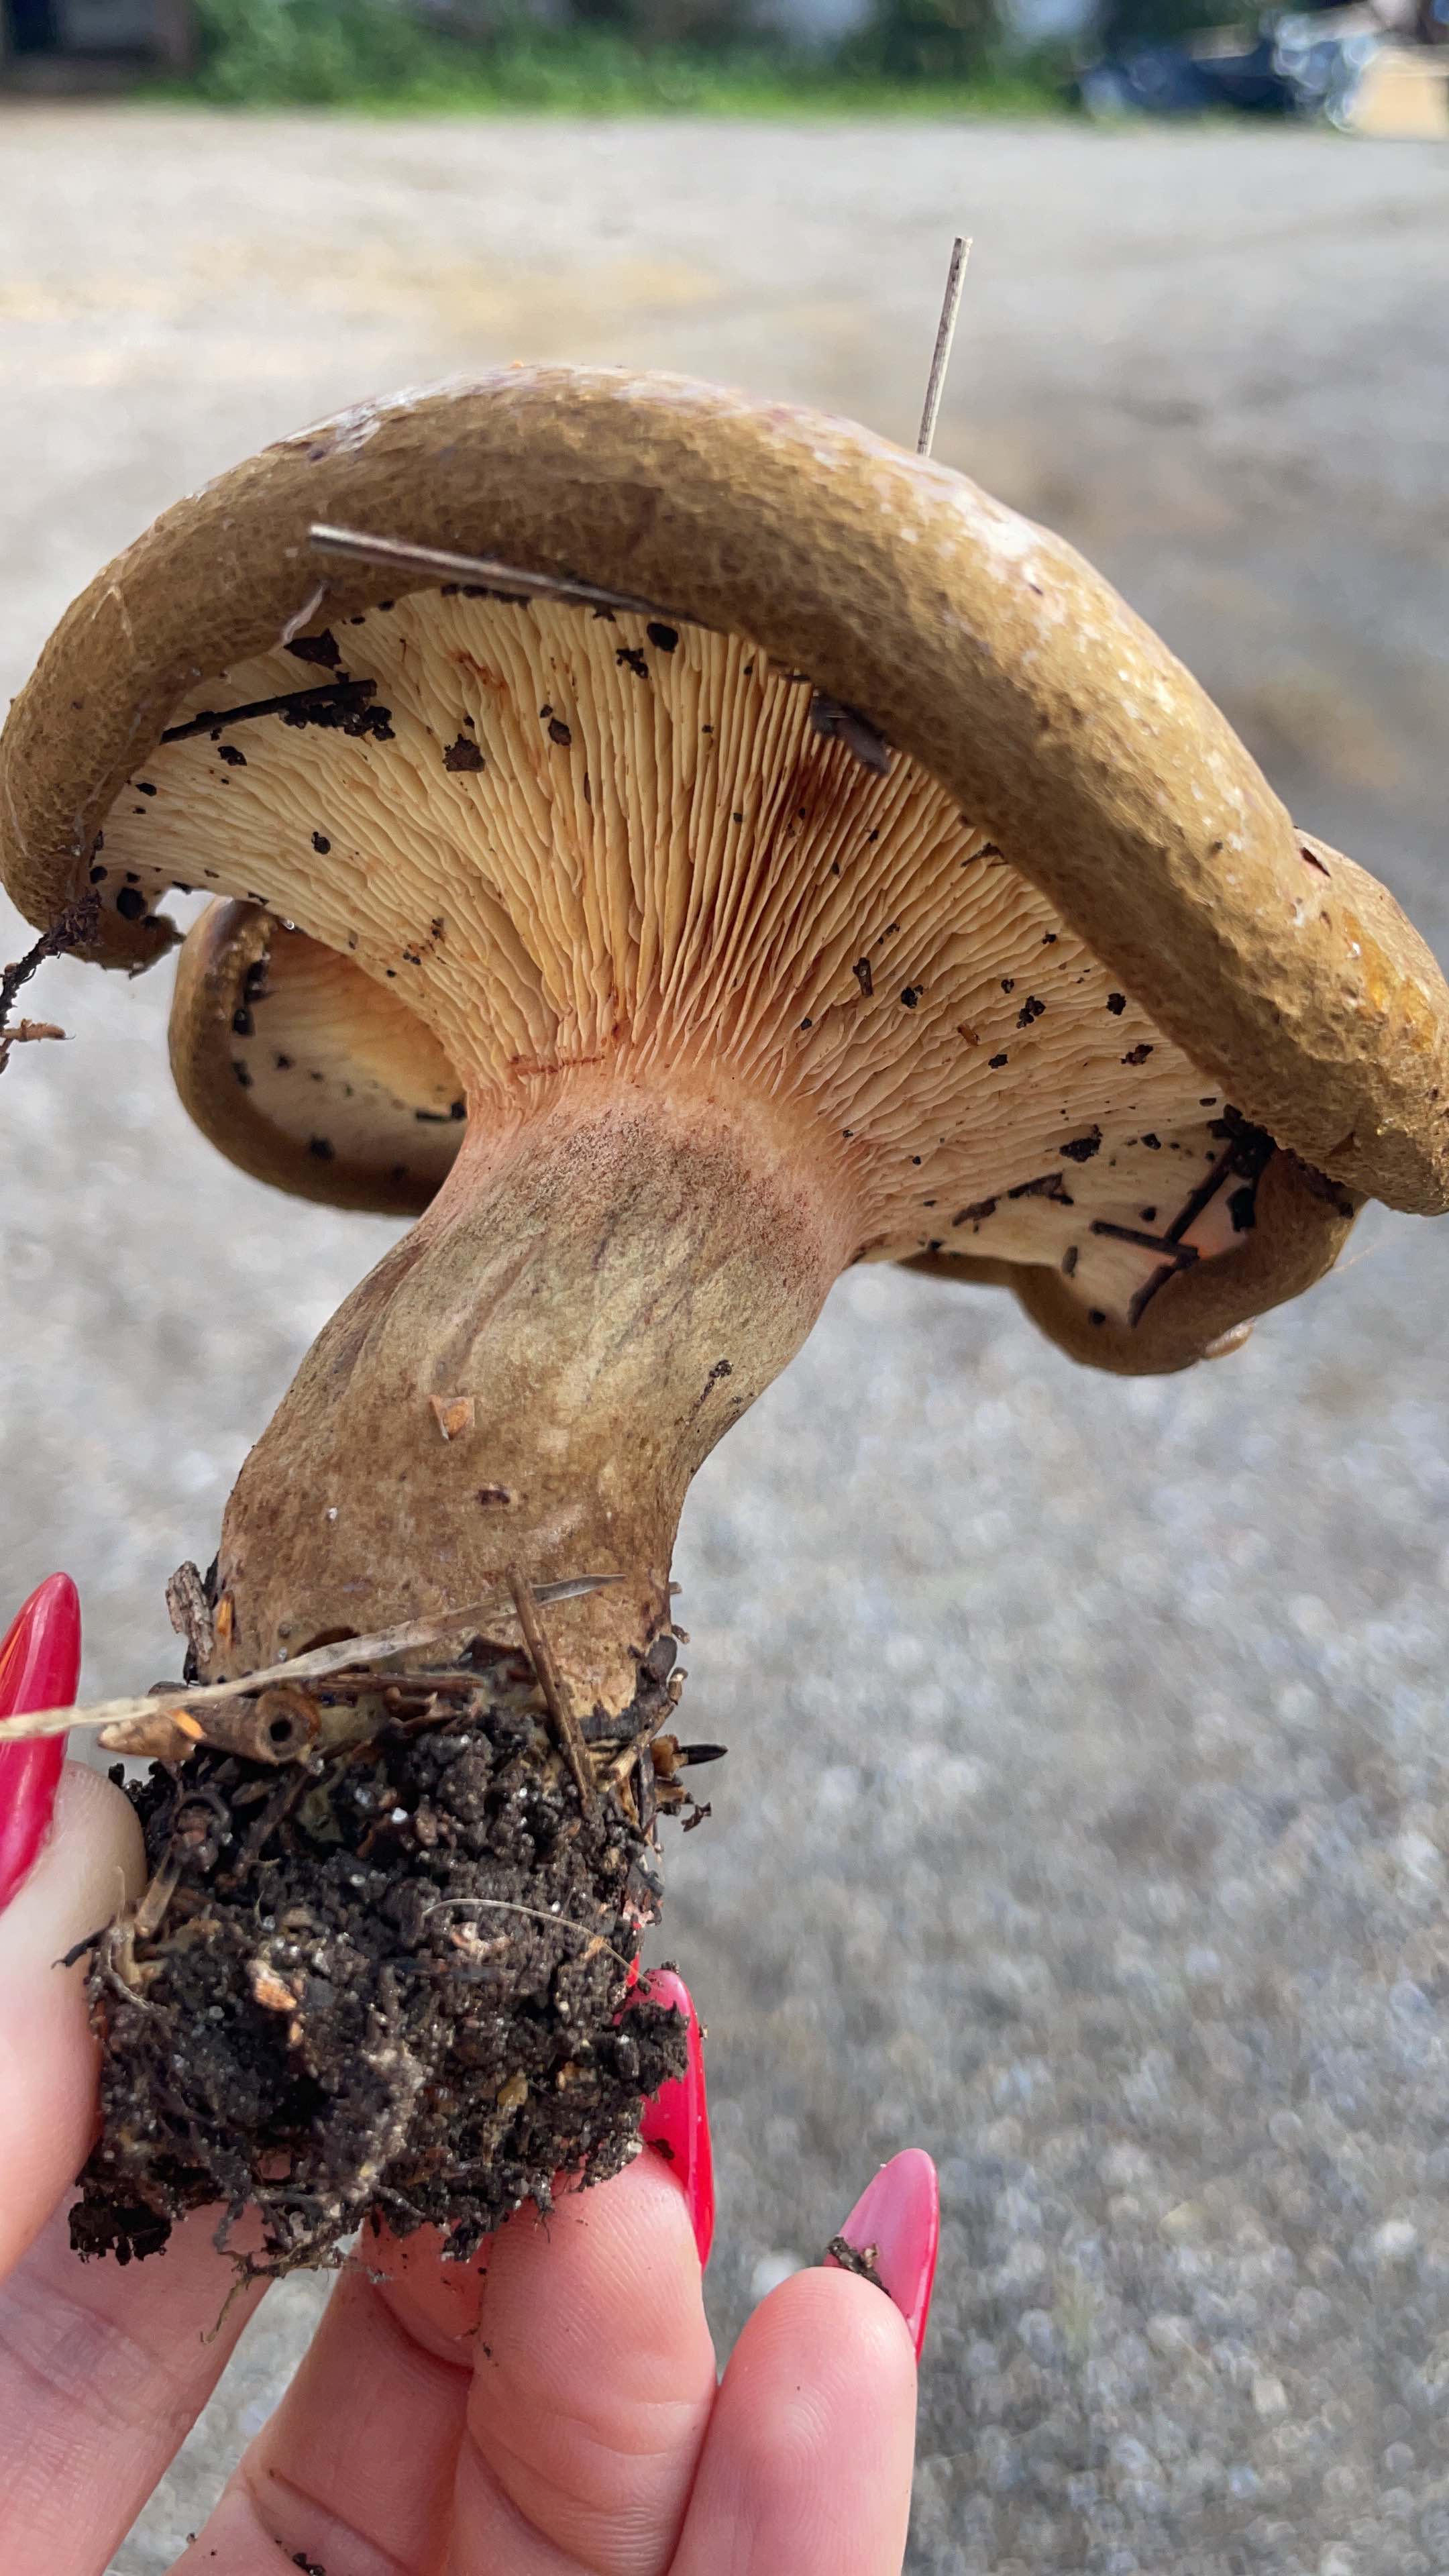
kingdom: Fungi
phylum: Basidiomycota
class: Agaricomycetes
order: Boletales
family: Paxillaceae
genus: Paxillus
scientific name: Paxillus involutus
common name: almindelig netbladhat
